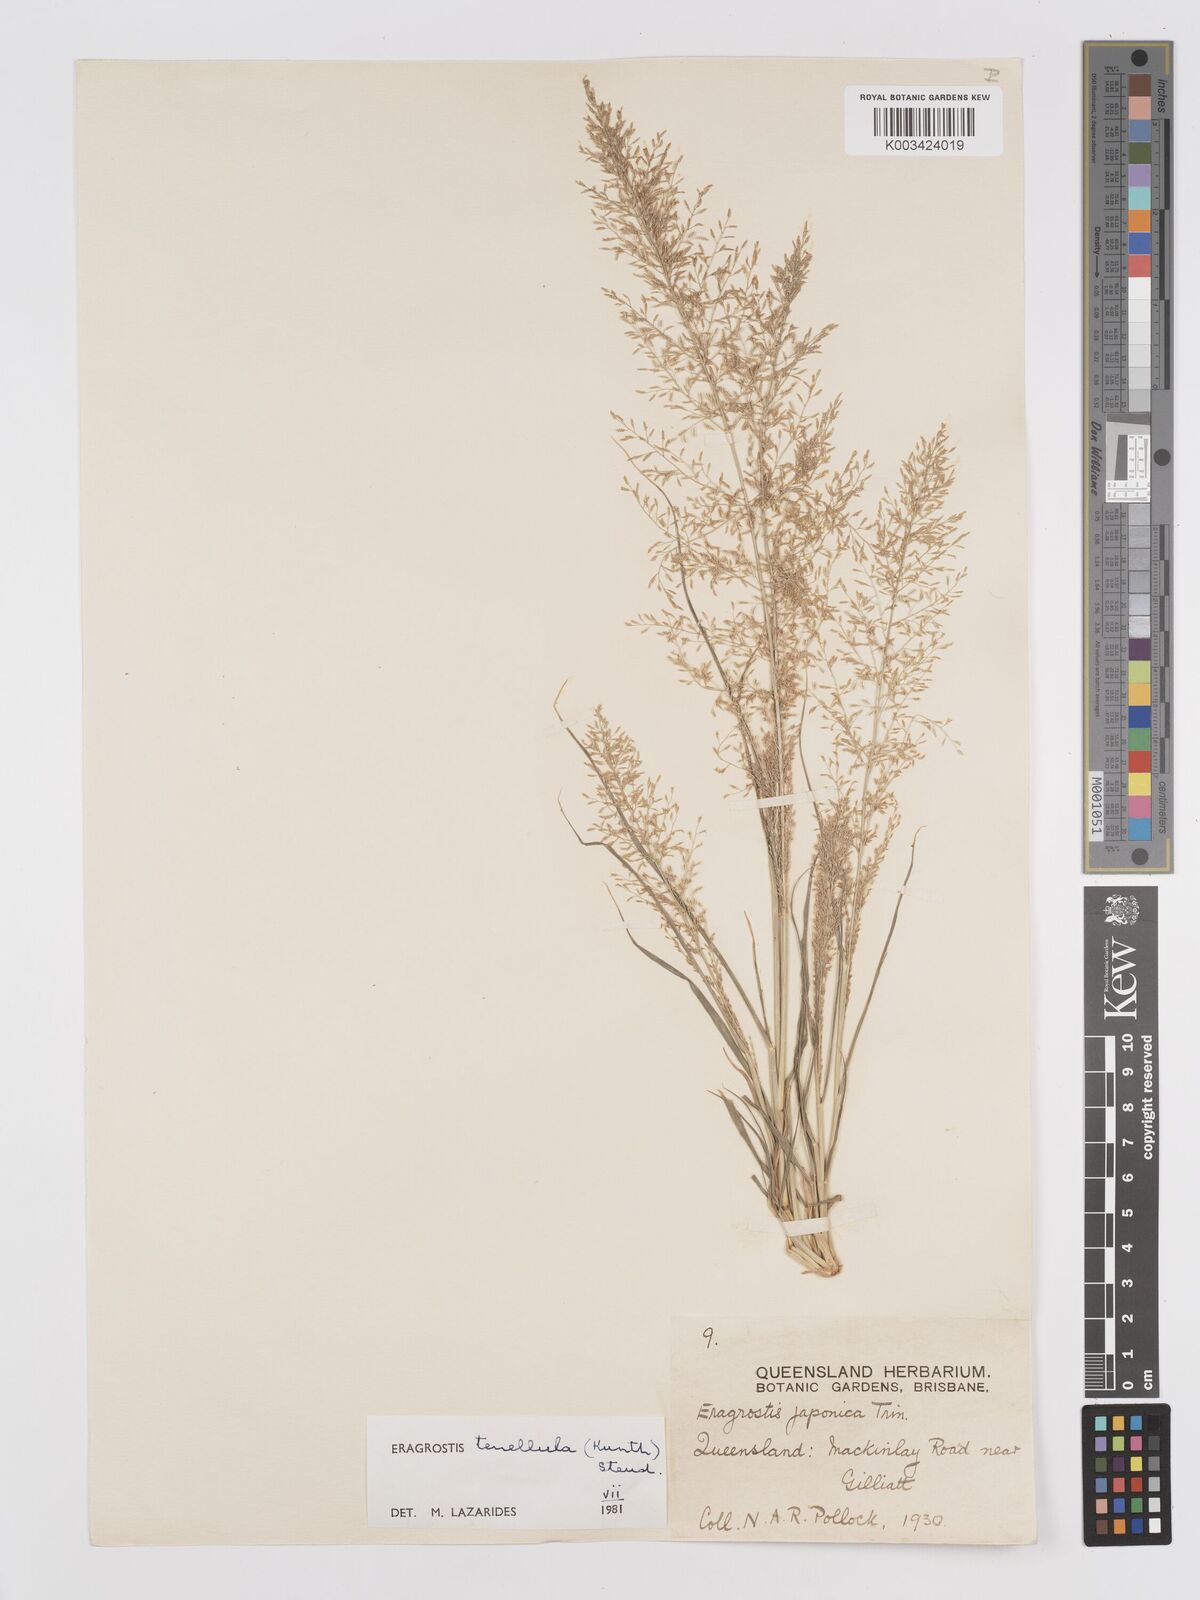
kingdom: Plantae
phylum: Tracheophyta
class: Liliopsida
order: Poales
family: Poaceae
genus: Eragrostis
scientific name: Eragrostis tenellula
